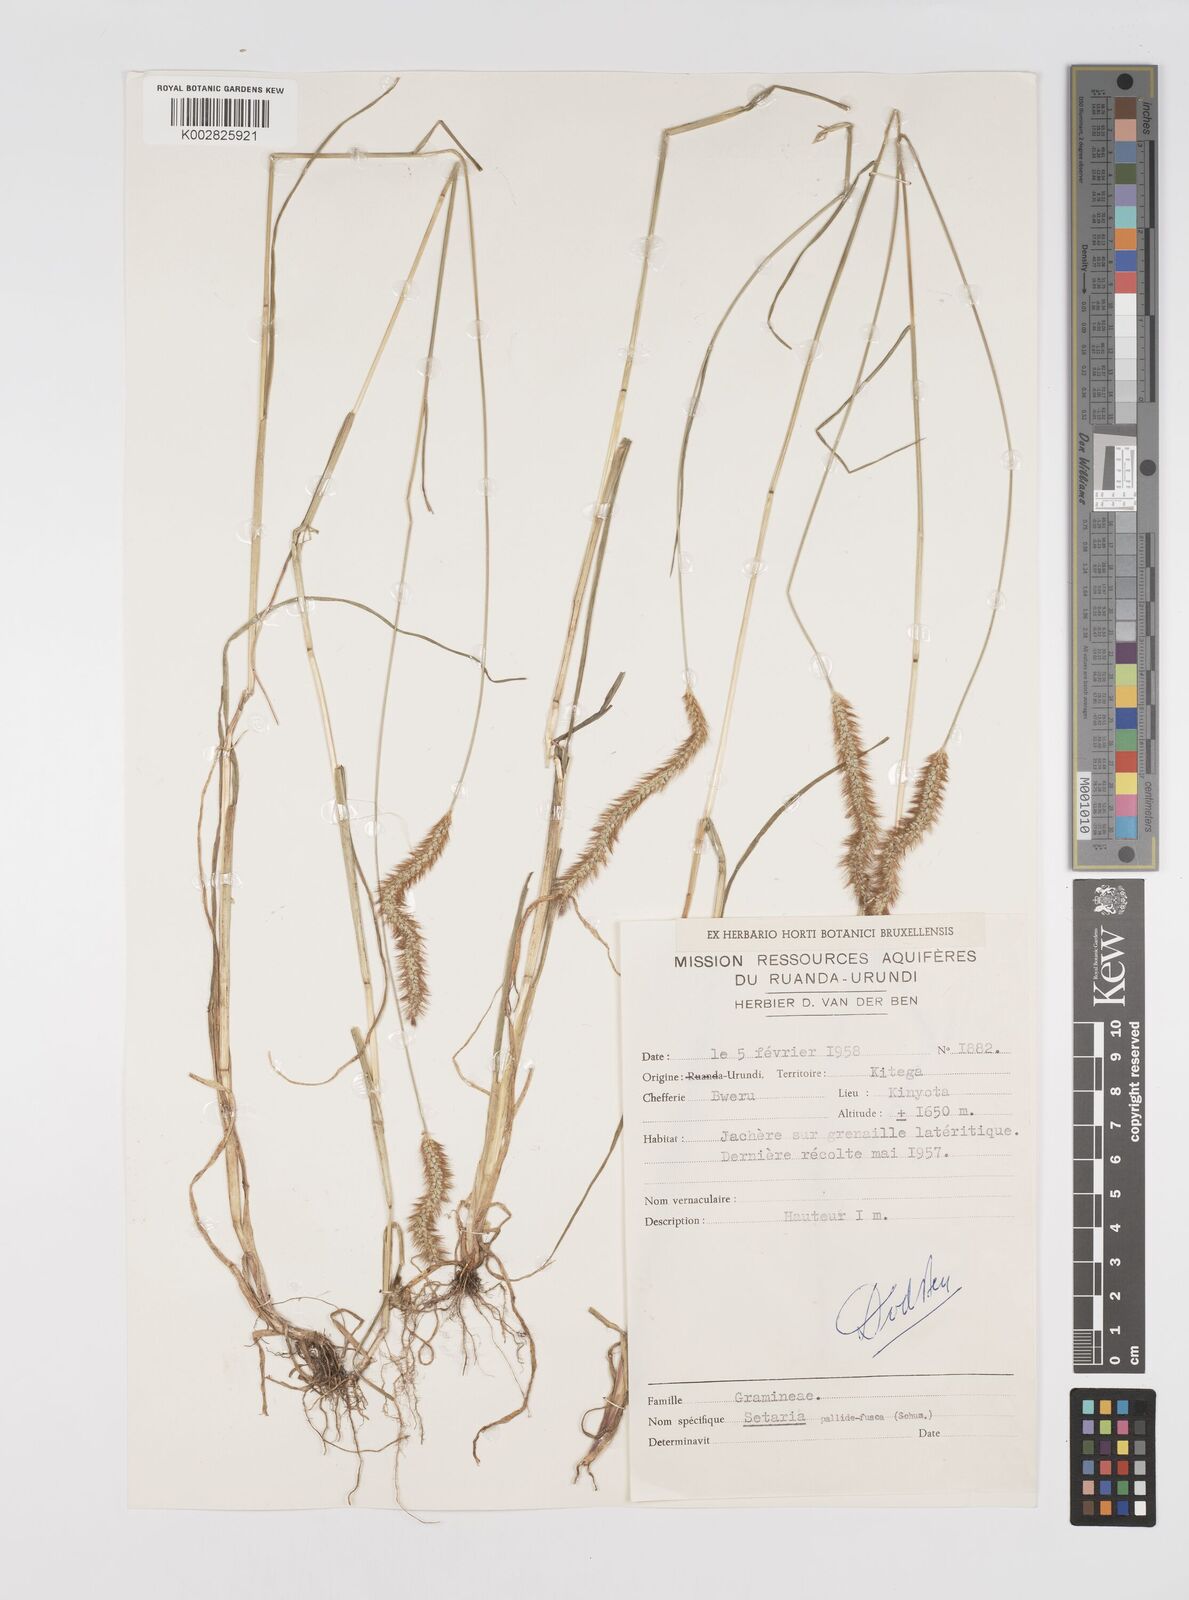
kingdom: Plantae
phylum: Tracheophyta
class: Liliopsida
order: Poales
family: Poaceae
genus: Setaria
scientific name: Setaria pumila
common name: Yellow bristle-grass
